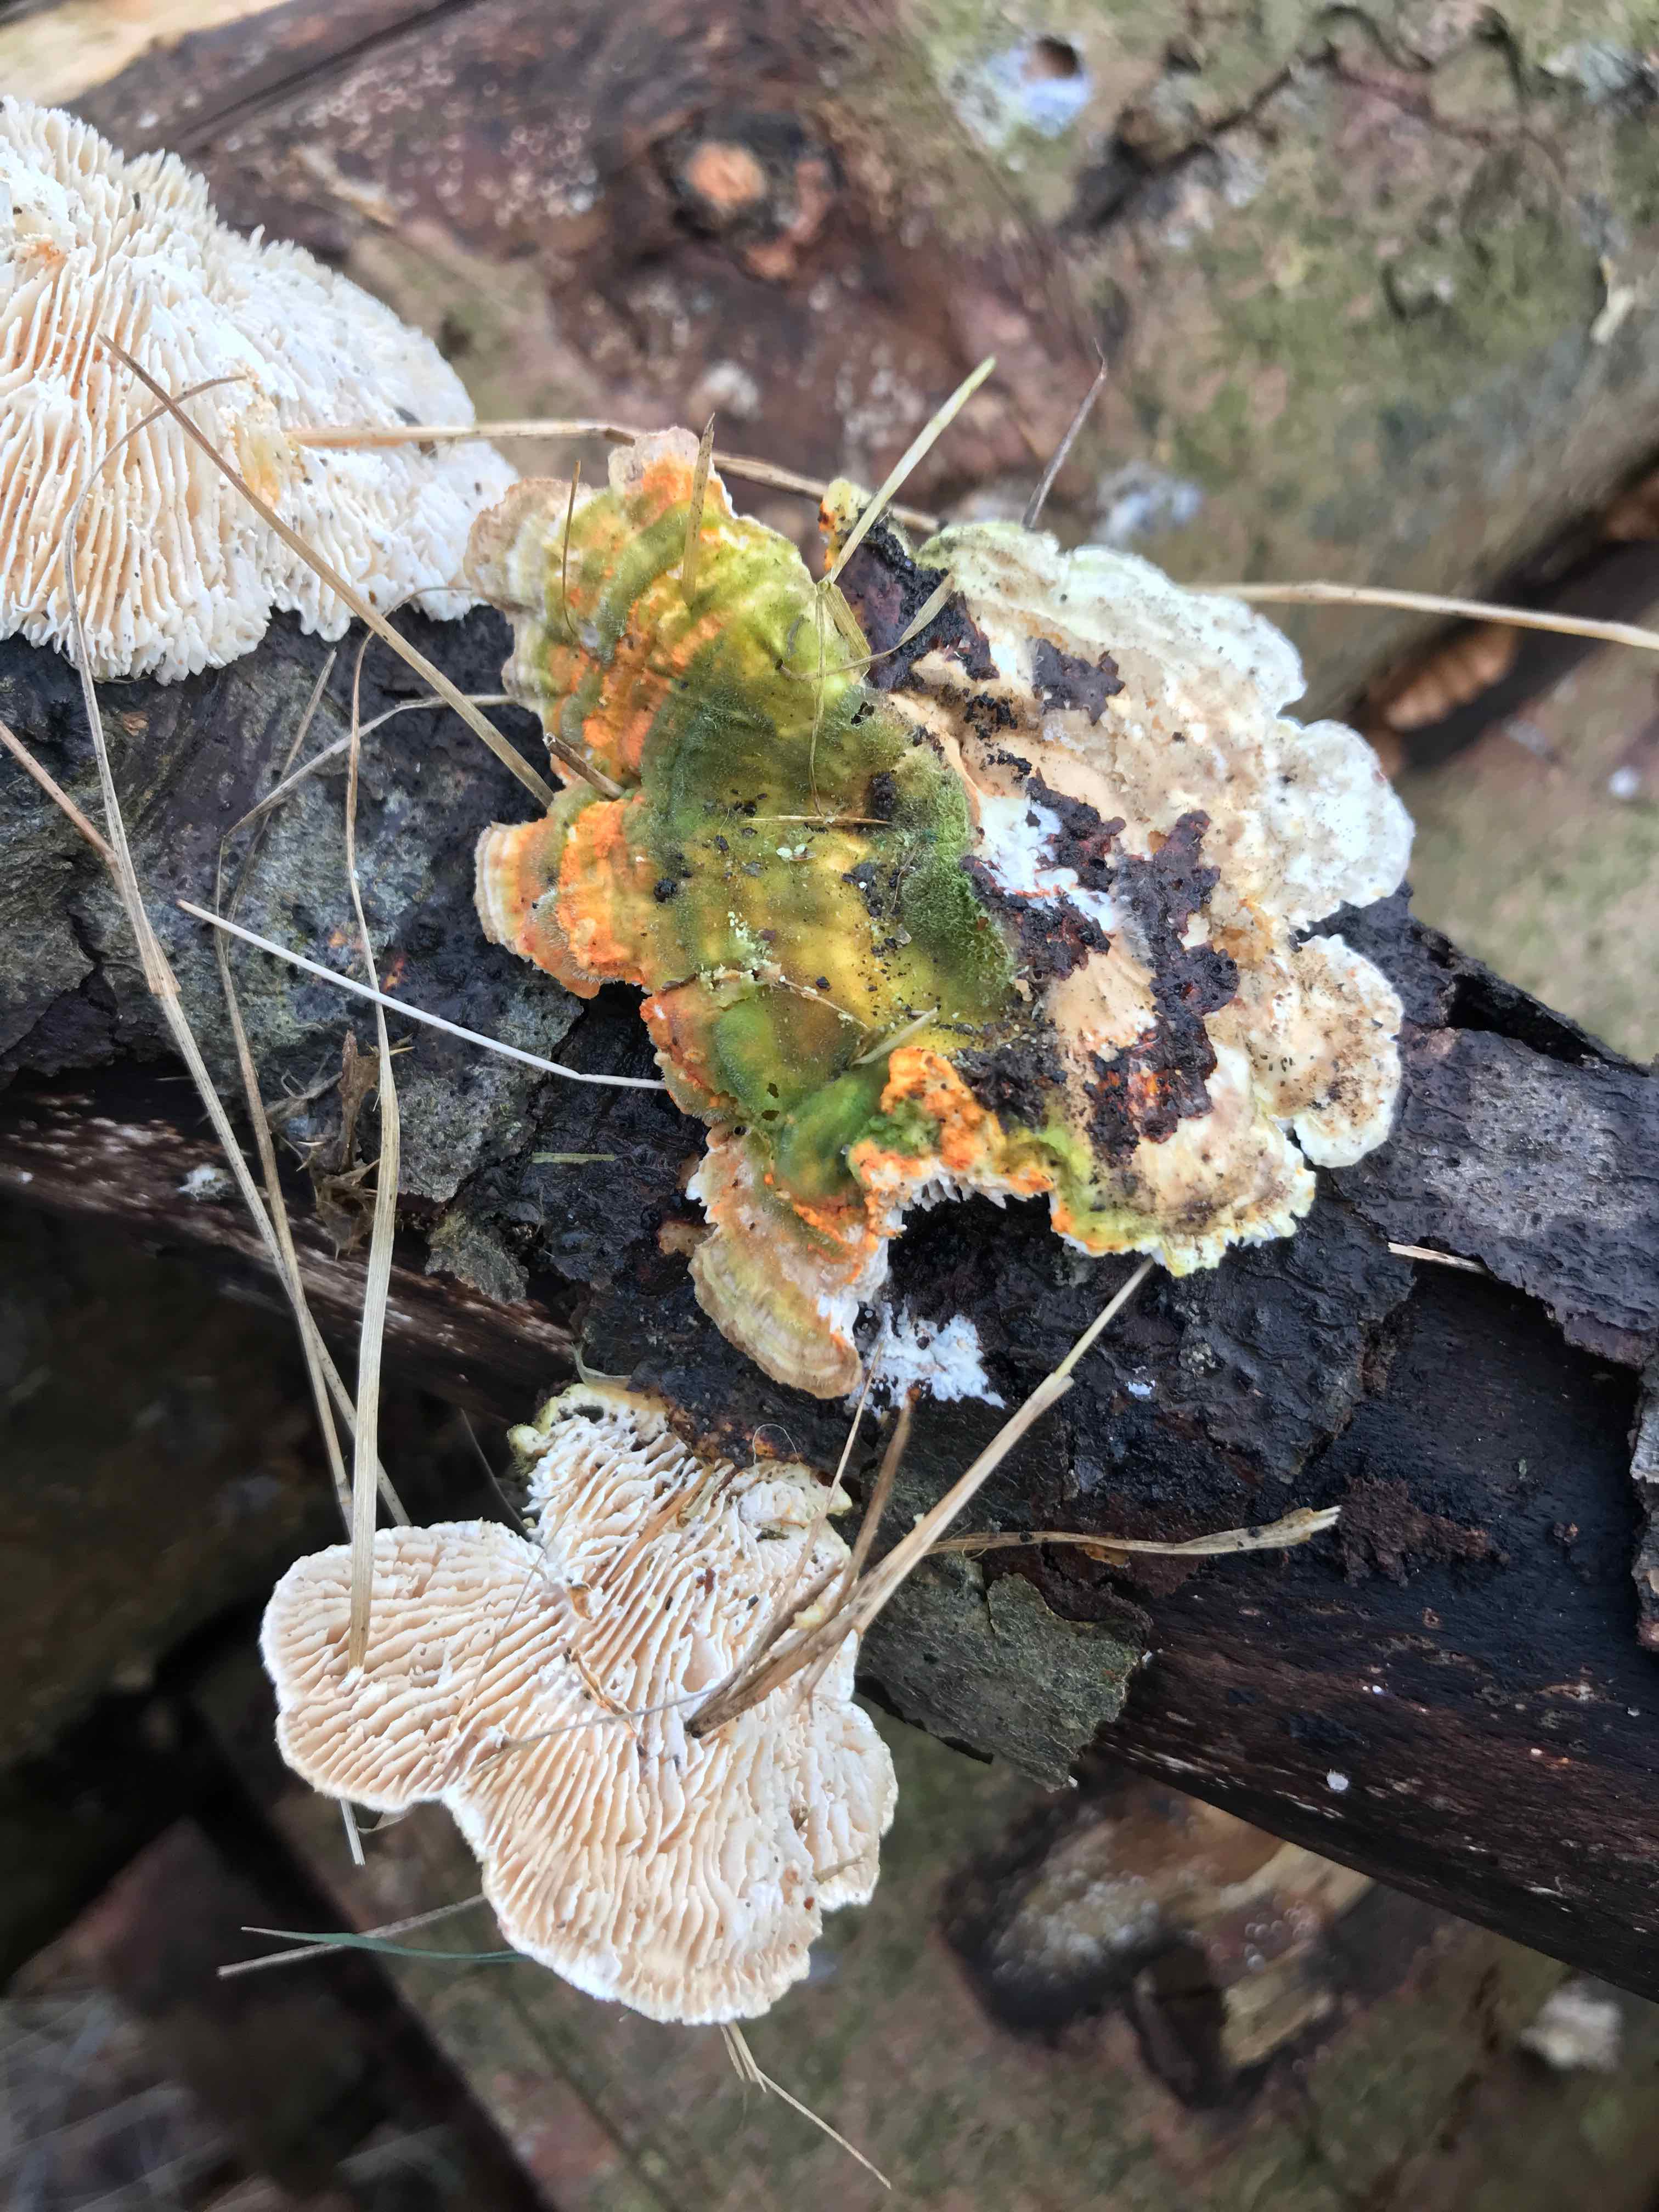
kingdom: Fungi
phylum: Basidiomycota
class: Agaricomycetes
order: Polyporales
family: Polyporaceae
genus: Lenzites
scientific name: Lenzites betulinus
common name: birke-læderporesvamp
